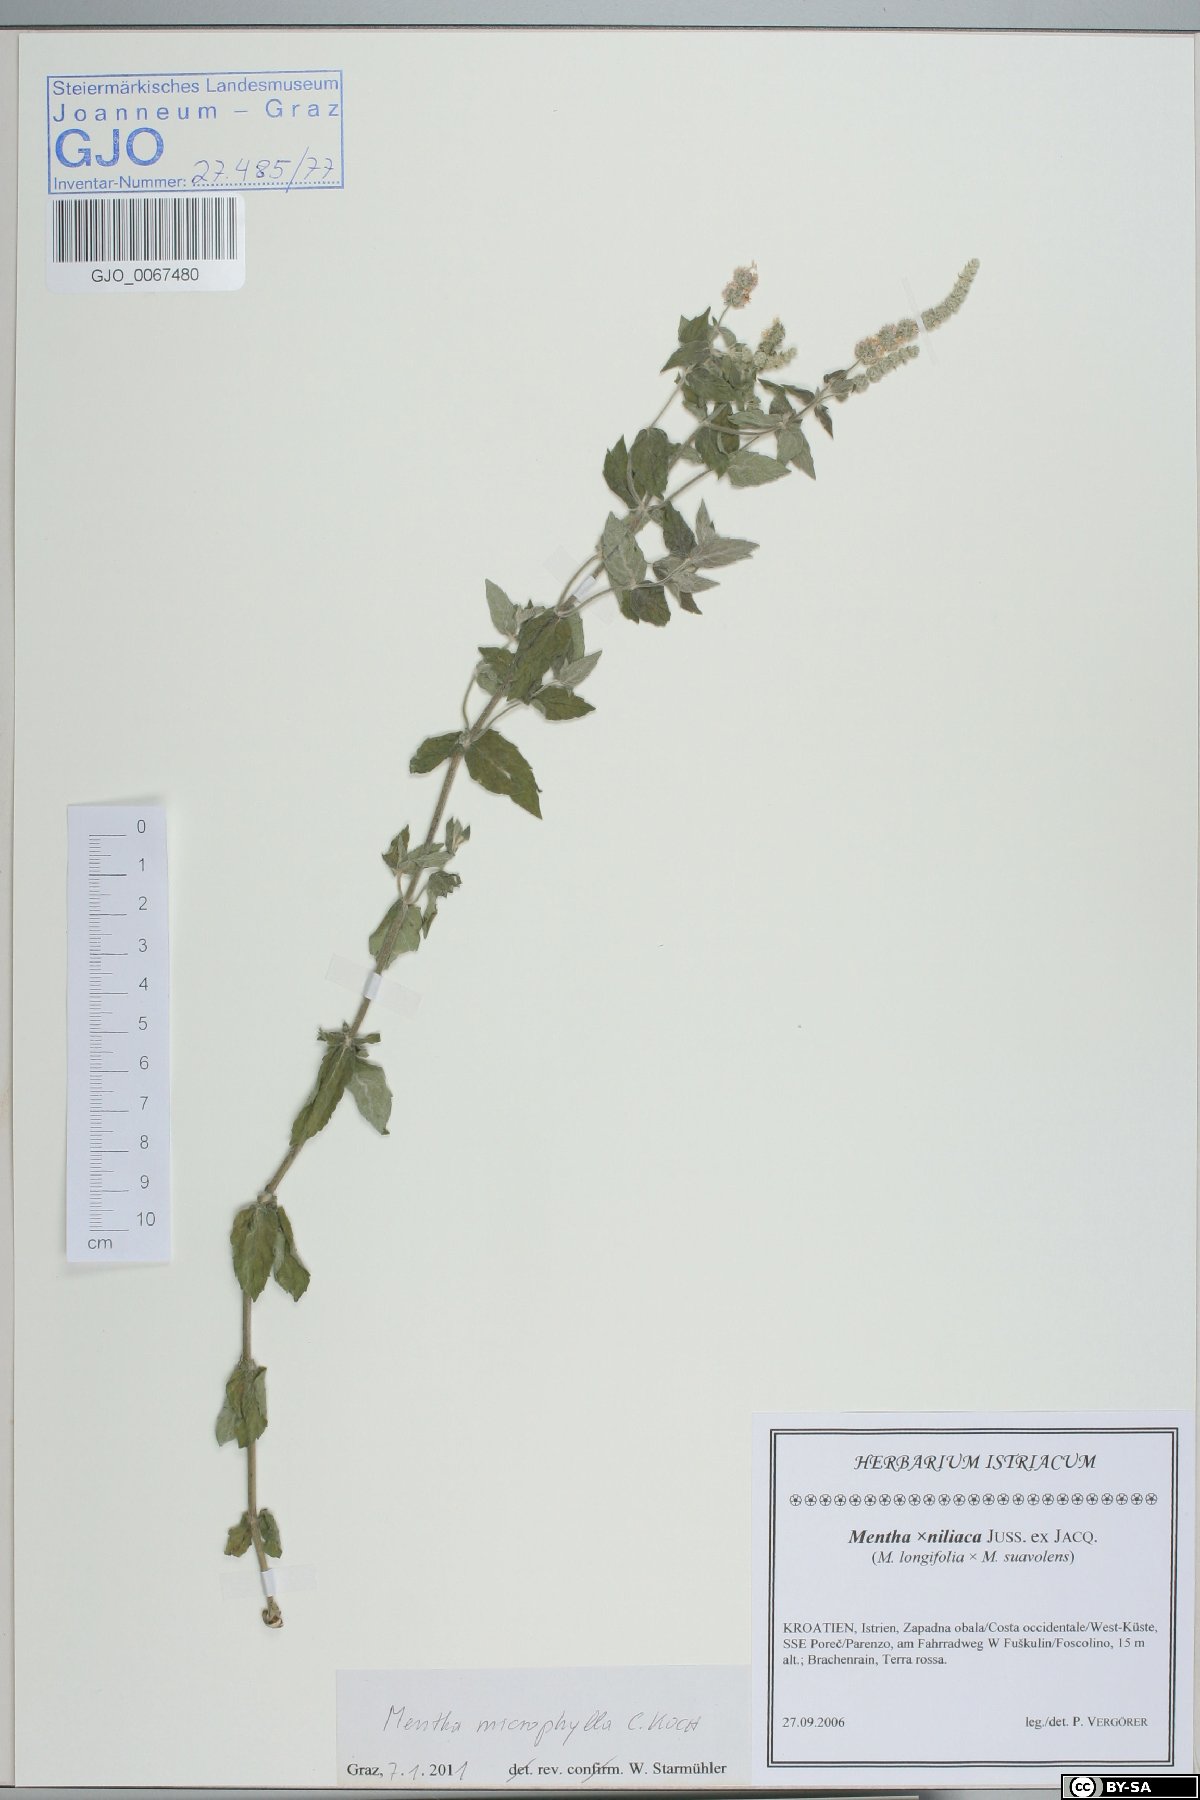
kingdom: Plantae
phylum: Tracheophyta
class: Magnoliopsida
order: Lamiales
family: Lamiaceae
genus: Mentha
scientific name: Mentha spicata
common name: Spearmint
